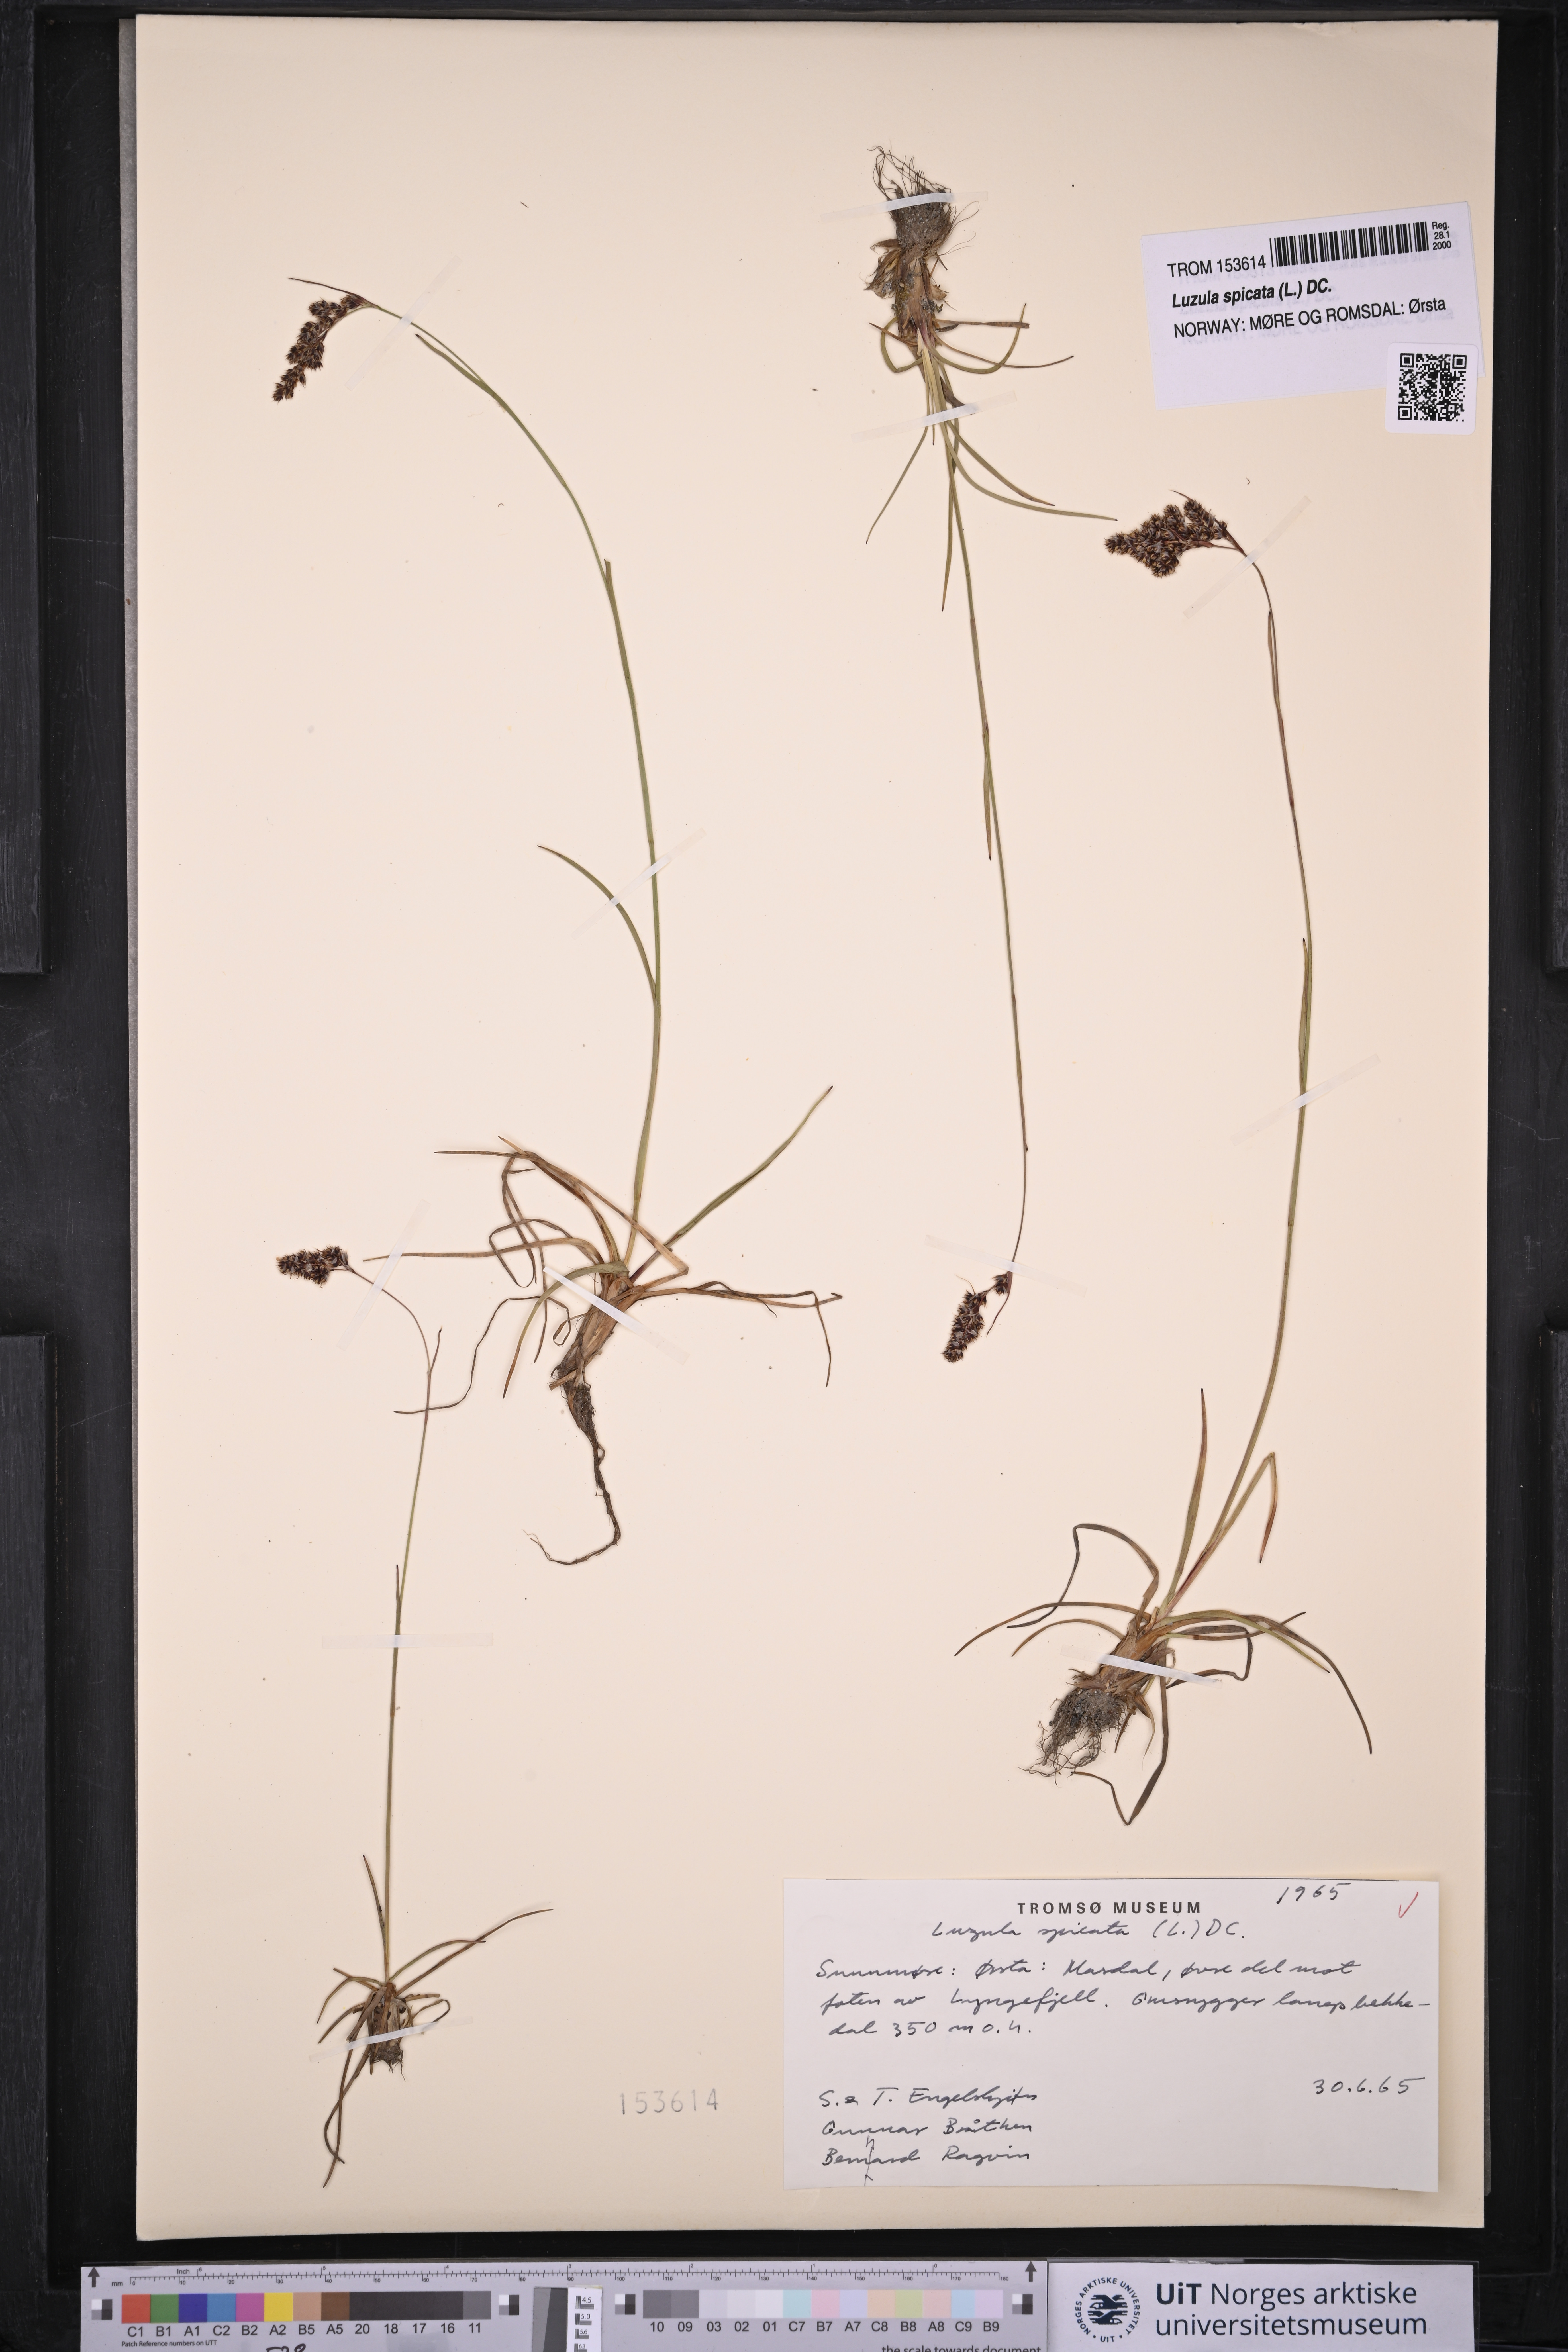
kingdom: Plantae
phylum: Tracheophyta
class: Liliopsida
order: Poales
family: Juncaceae
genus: Luzula
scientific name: Luzula spicata
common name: Spiked wood-rush
